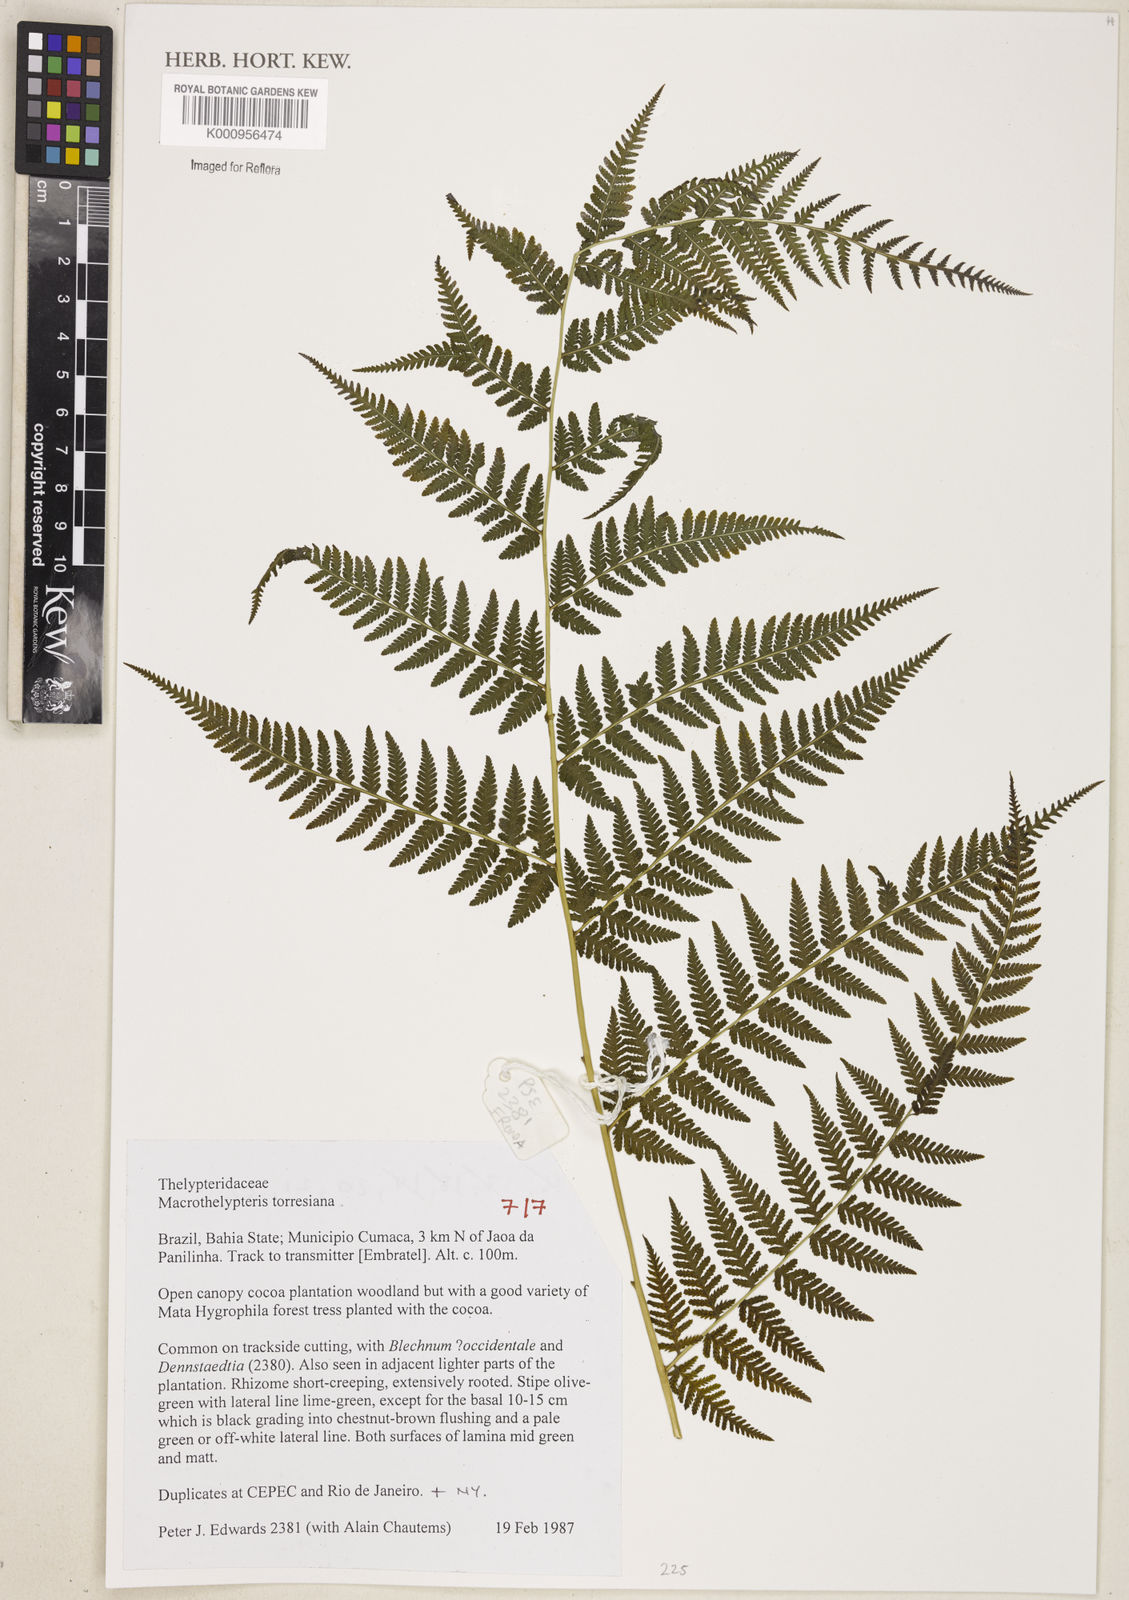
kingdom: Plantae
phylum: Tracheophyta
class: Polypodiopsida
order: Polypodiales
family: Thelypteridaceae
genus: Macrothelypteris
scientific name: Macrothelypteris torresiana
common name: Swordfern
